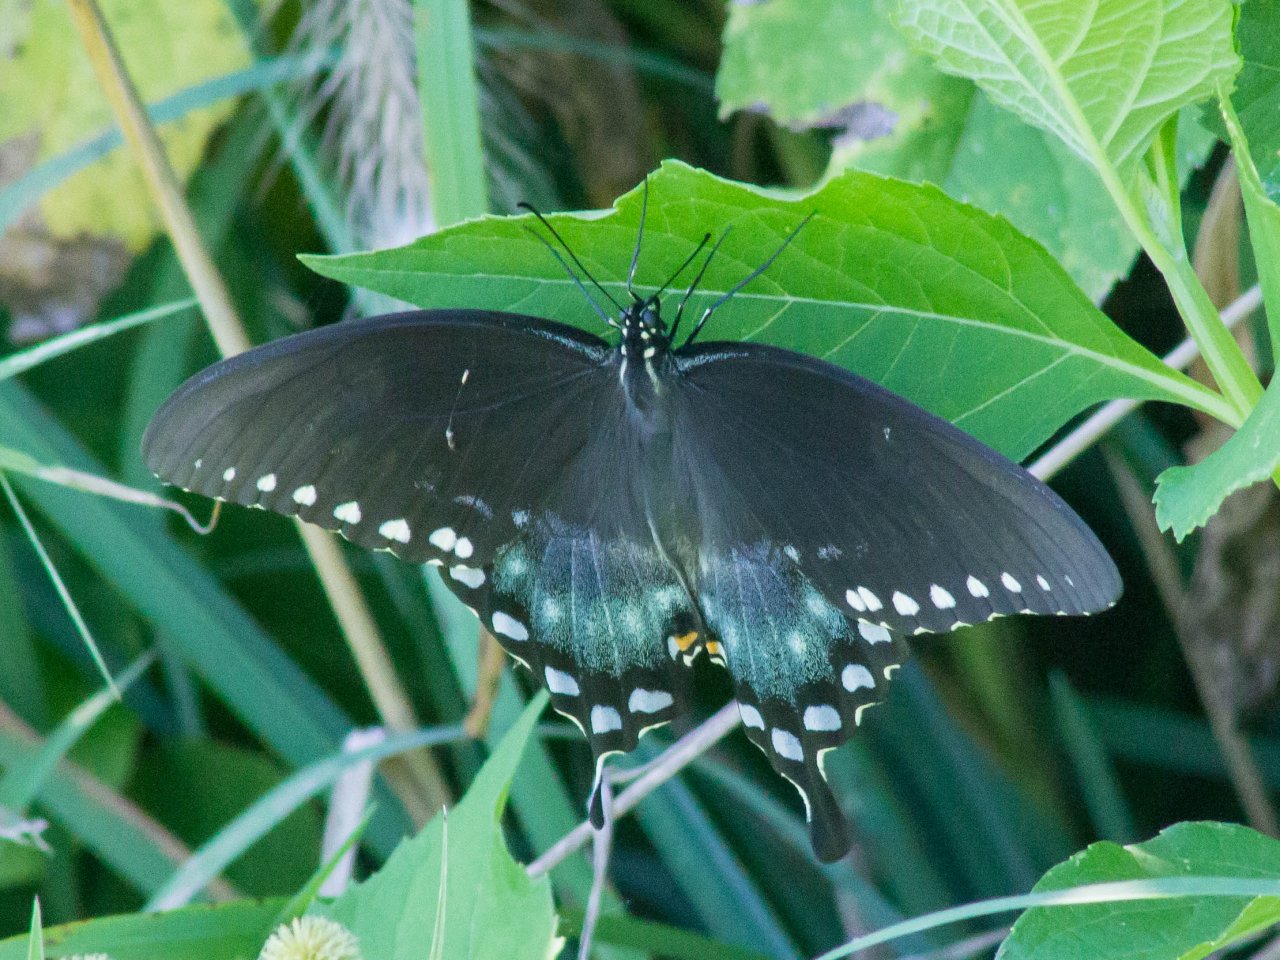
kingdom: Animalia
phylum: Arthropoda
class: Insecta
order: Lepidoptera
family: Papilionidae
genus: Pterourus
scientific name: Pterourus troilus
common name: Spicebush Swallowtail
